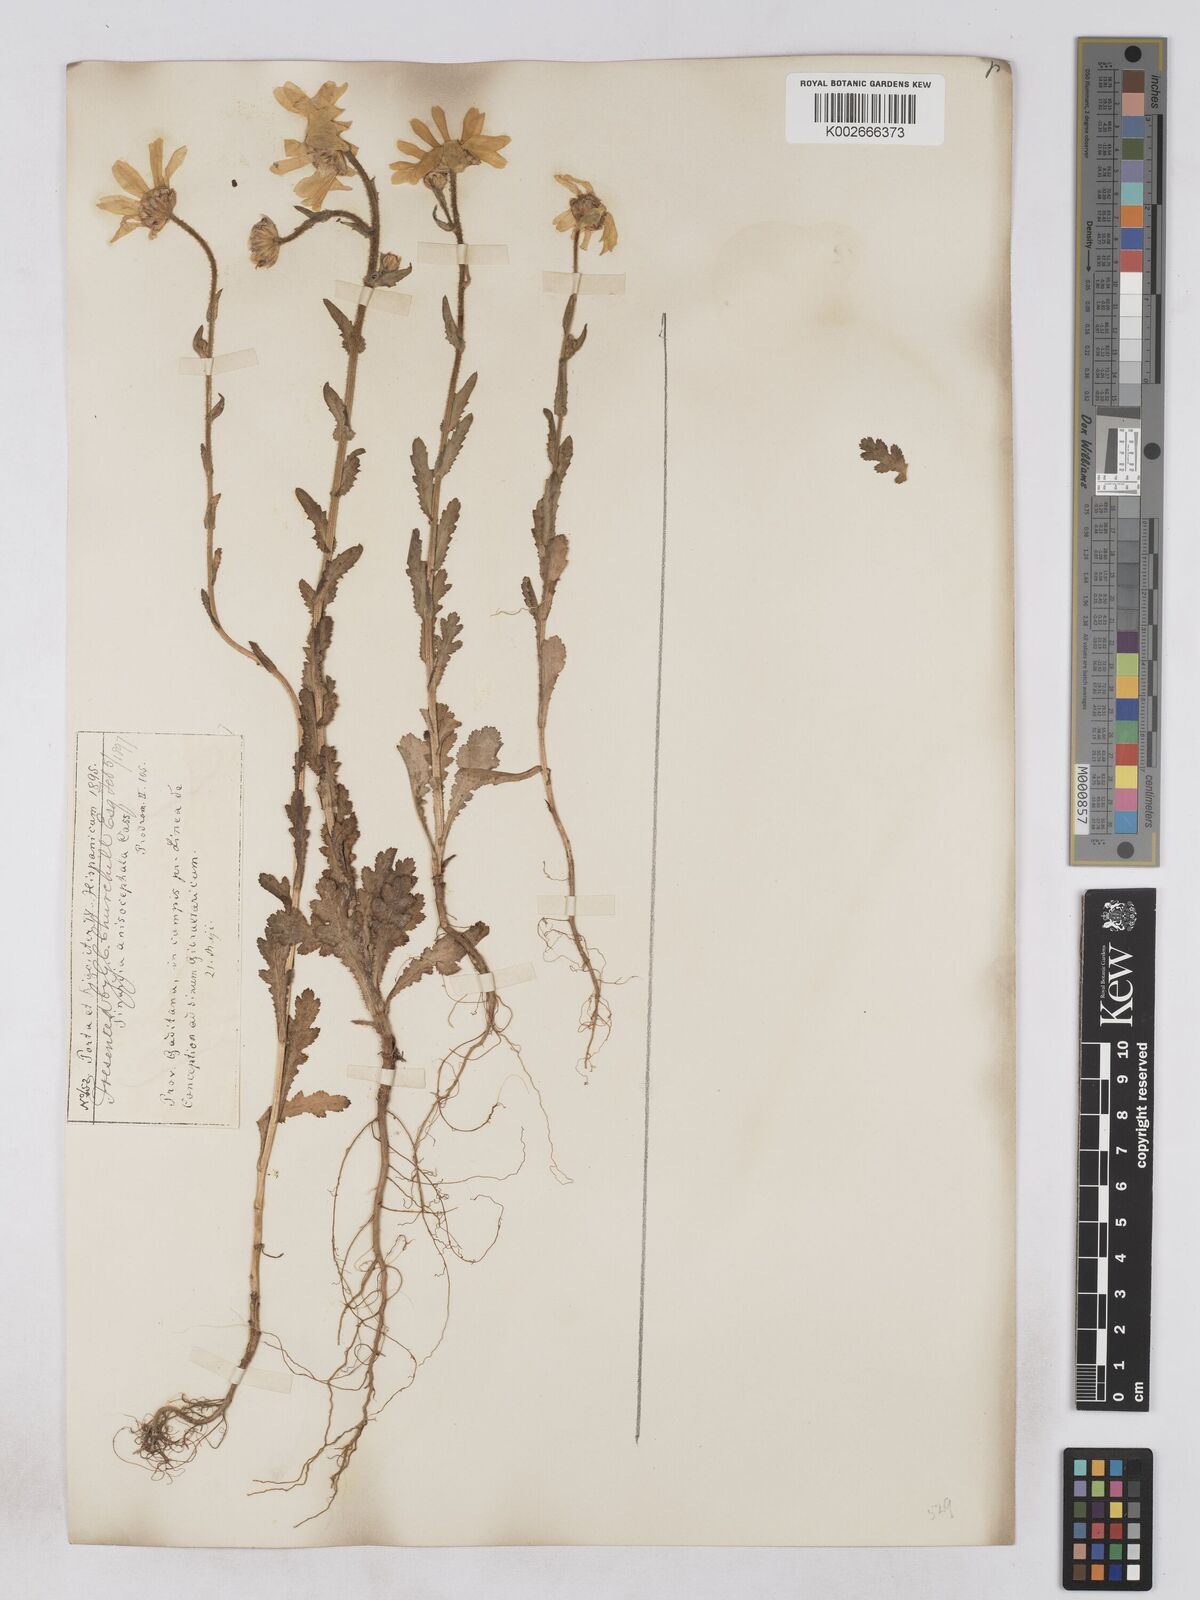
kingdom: Plantae
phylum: Tracheophyta
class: Magnoliopsida
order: Asterales
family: Asteraceae
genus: Heteranthemis
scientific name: Heteranthemis
